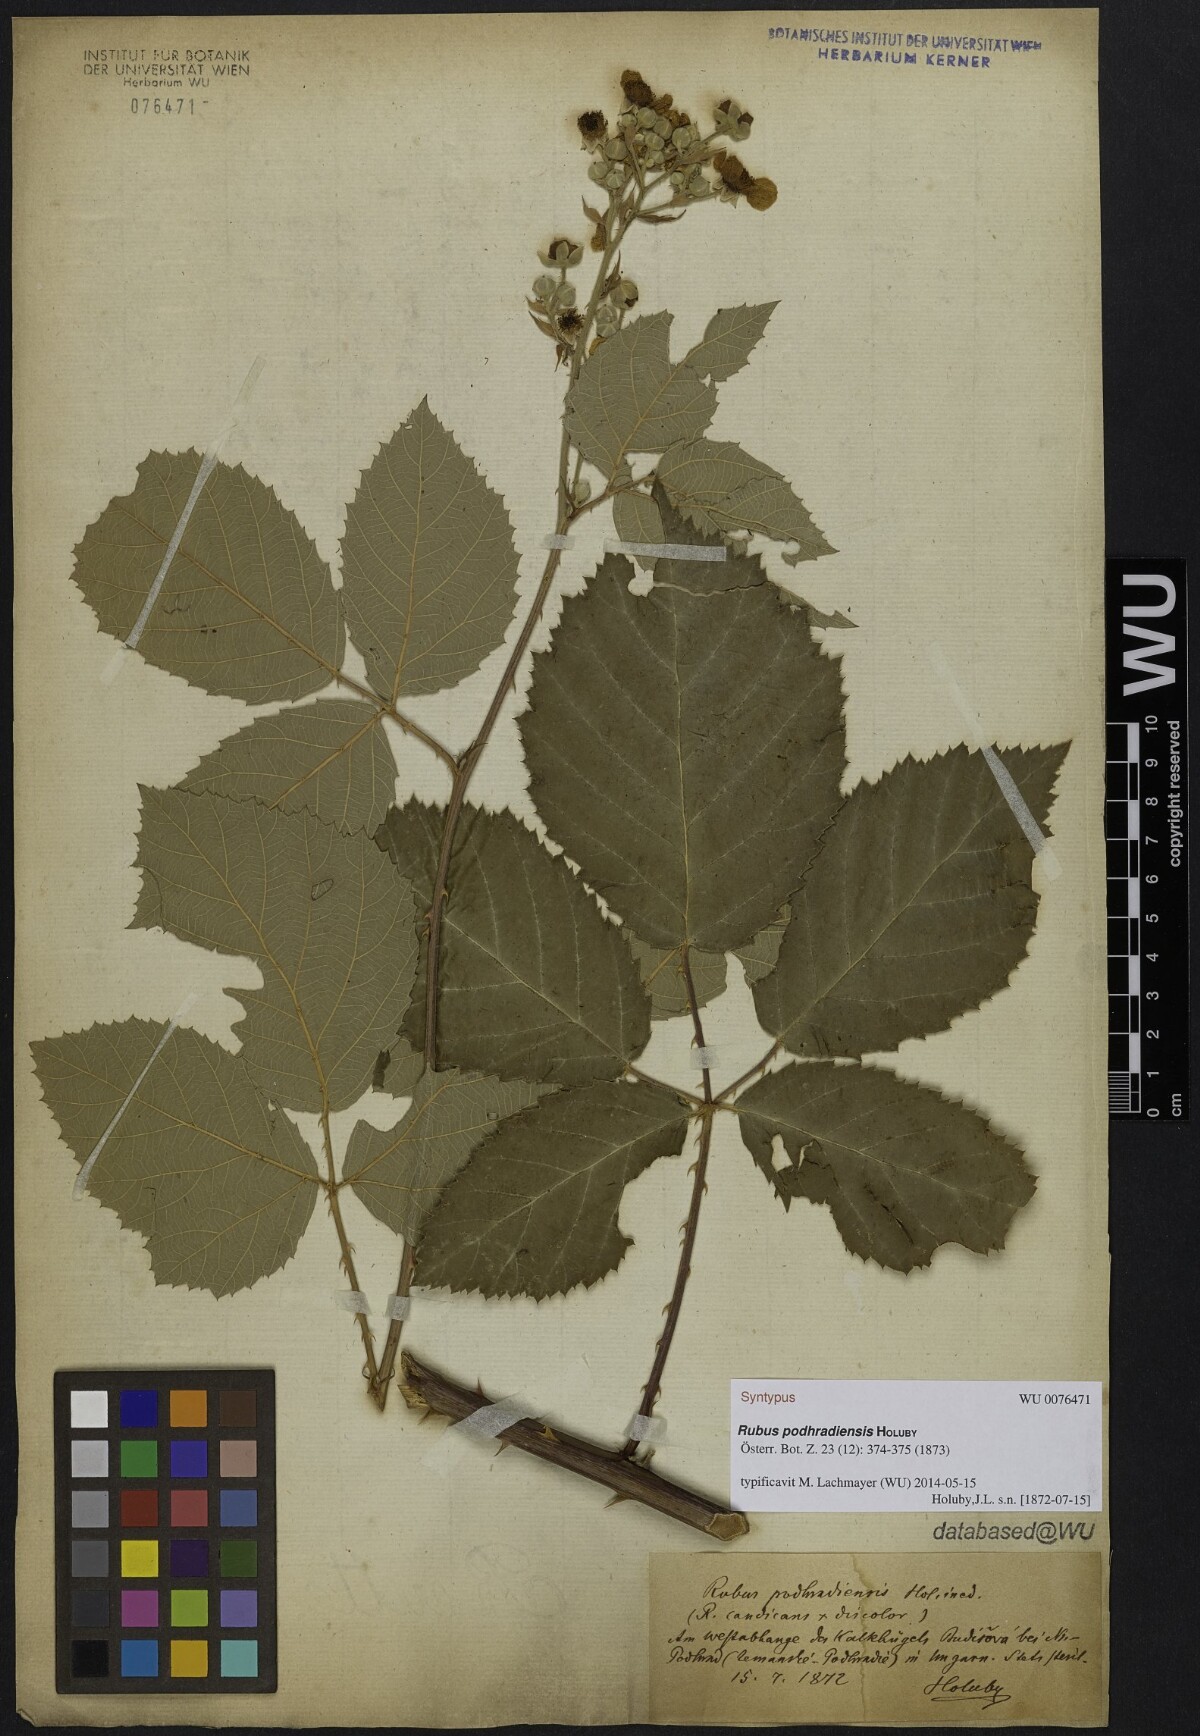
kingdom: Plantae
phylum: Tracheophyta
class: Magnoliopsida
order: Rosales
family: Rosaceae
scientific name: Rosaceae
